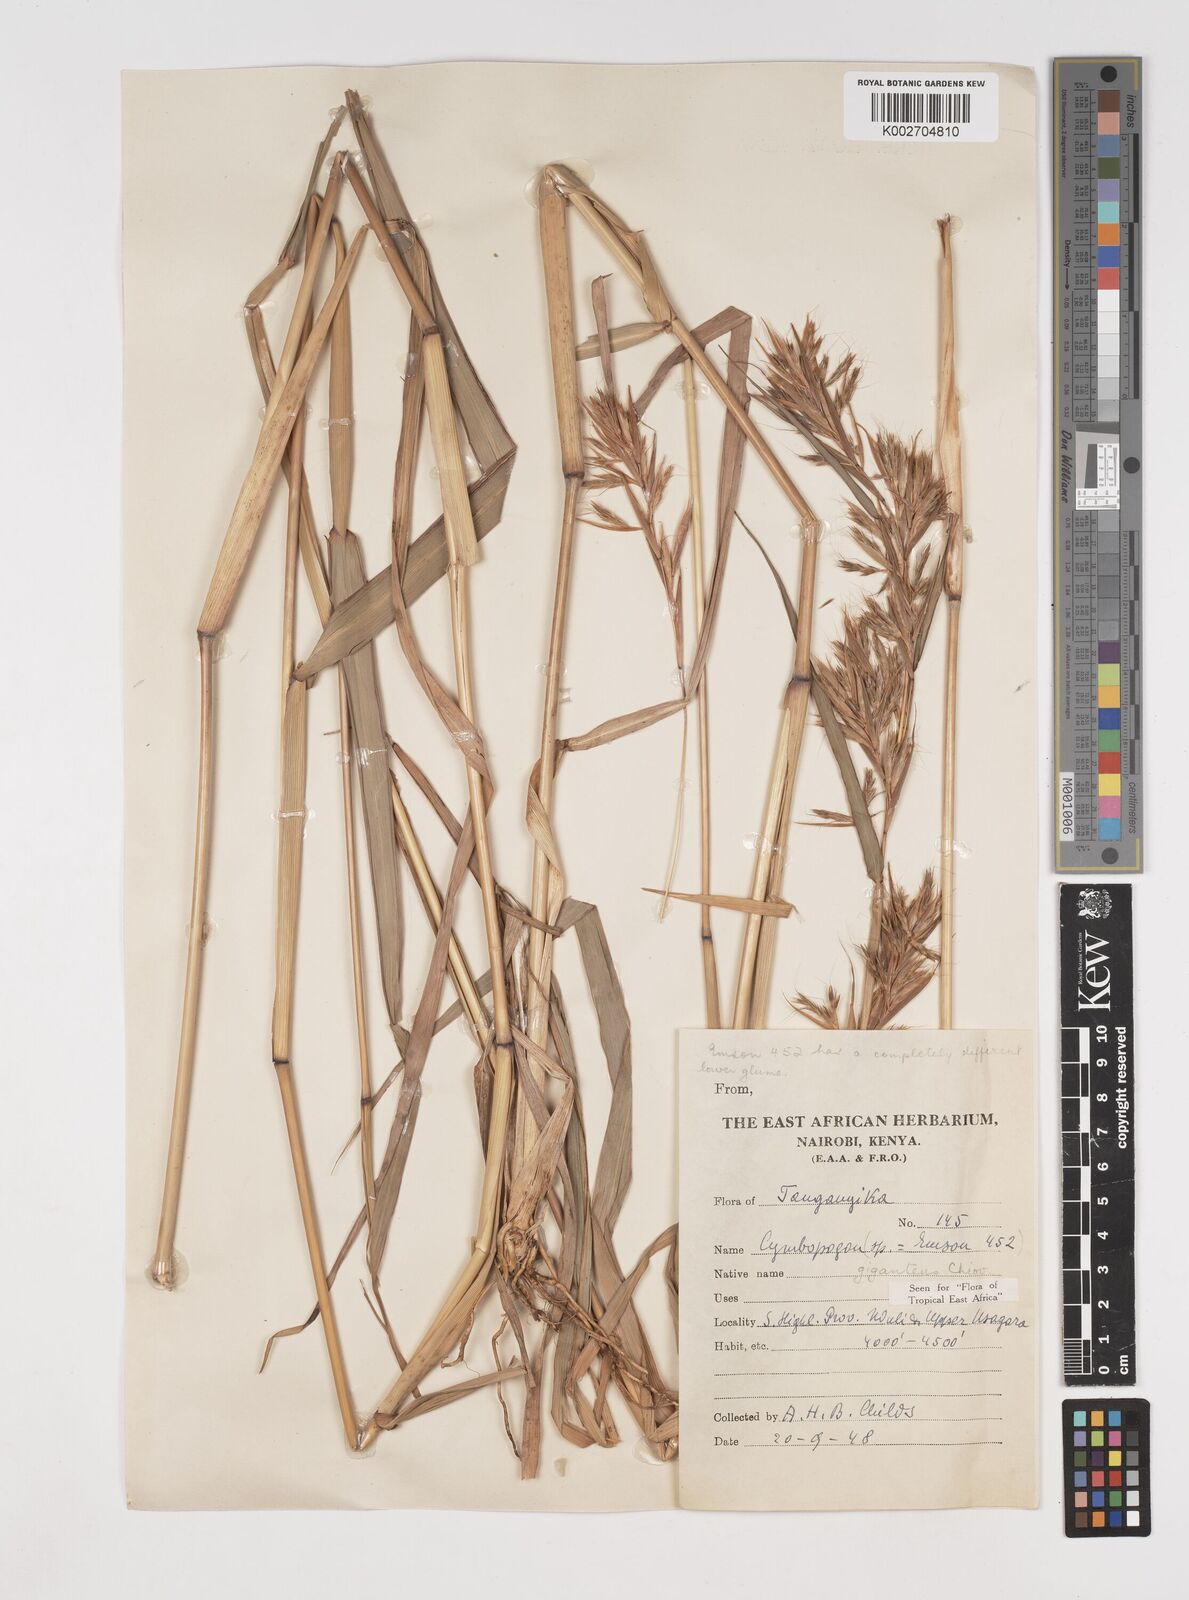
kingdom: Plantae
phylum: Tracheophyta
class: Liliopsida
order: Poales
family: Poaceae
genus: Cymbopogon
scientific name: Cymbopogon giganteus
